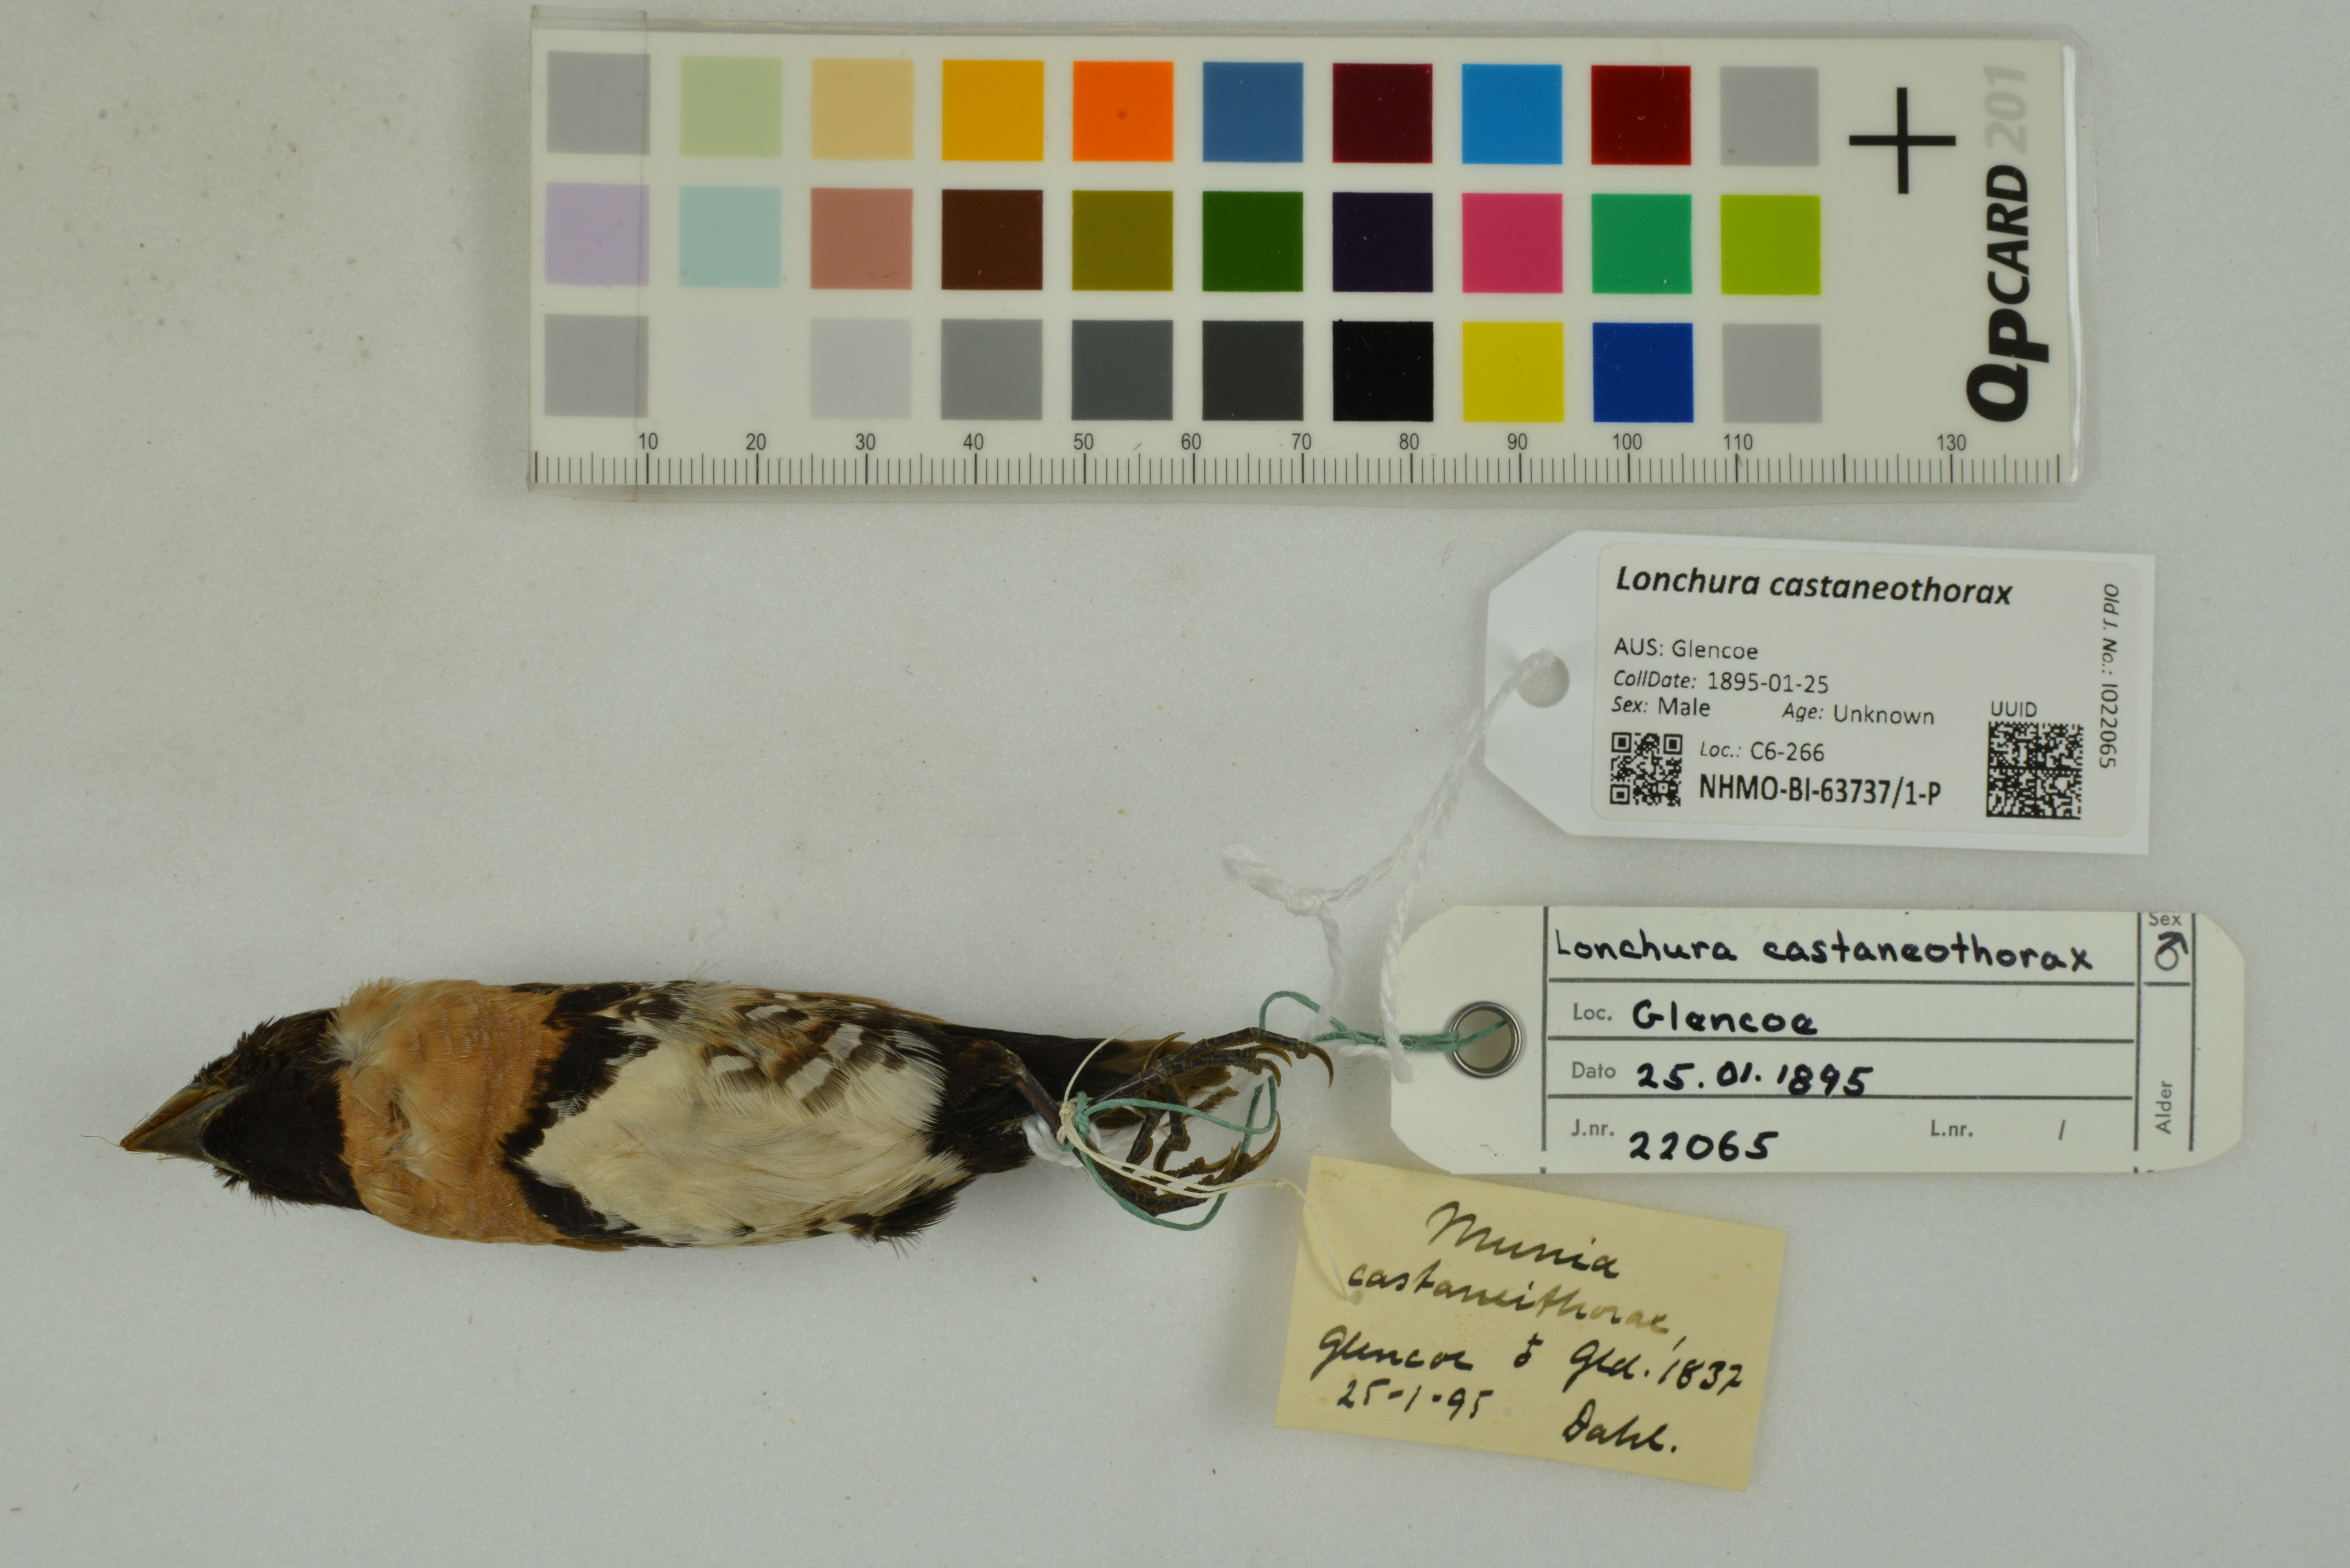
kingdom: Animalia
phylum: Chordata
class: Aves
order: Passeriformes
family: Estrildidae
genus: Lonchura
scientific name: Lonchura castaneothorax
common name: Chestnut-breasted mannikin
